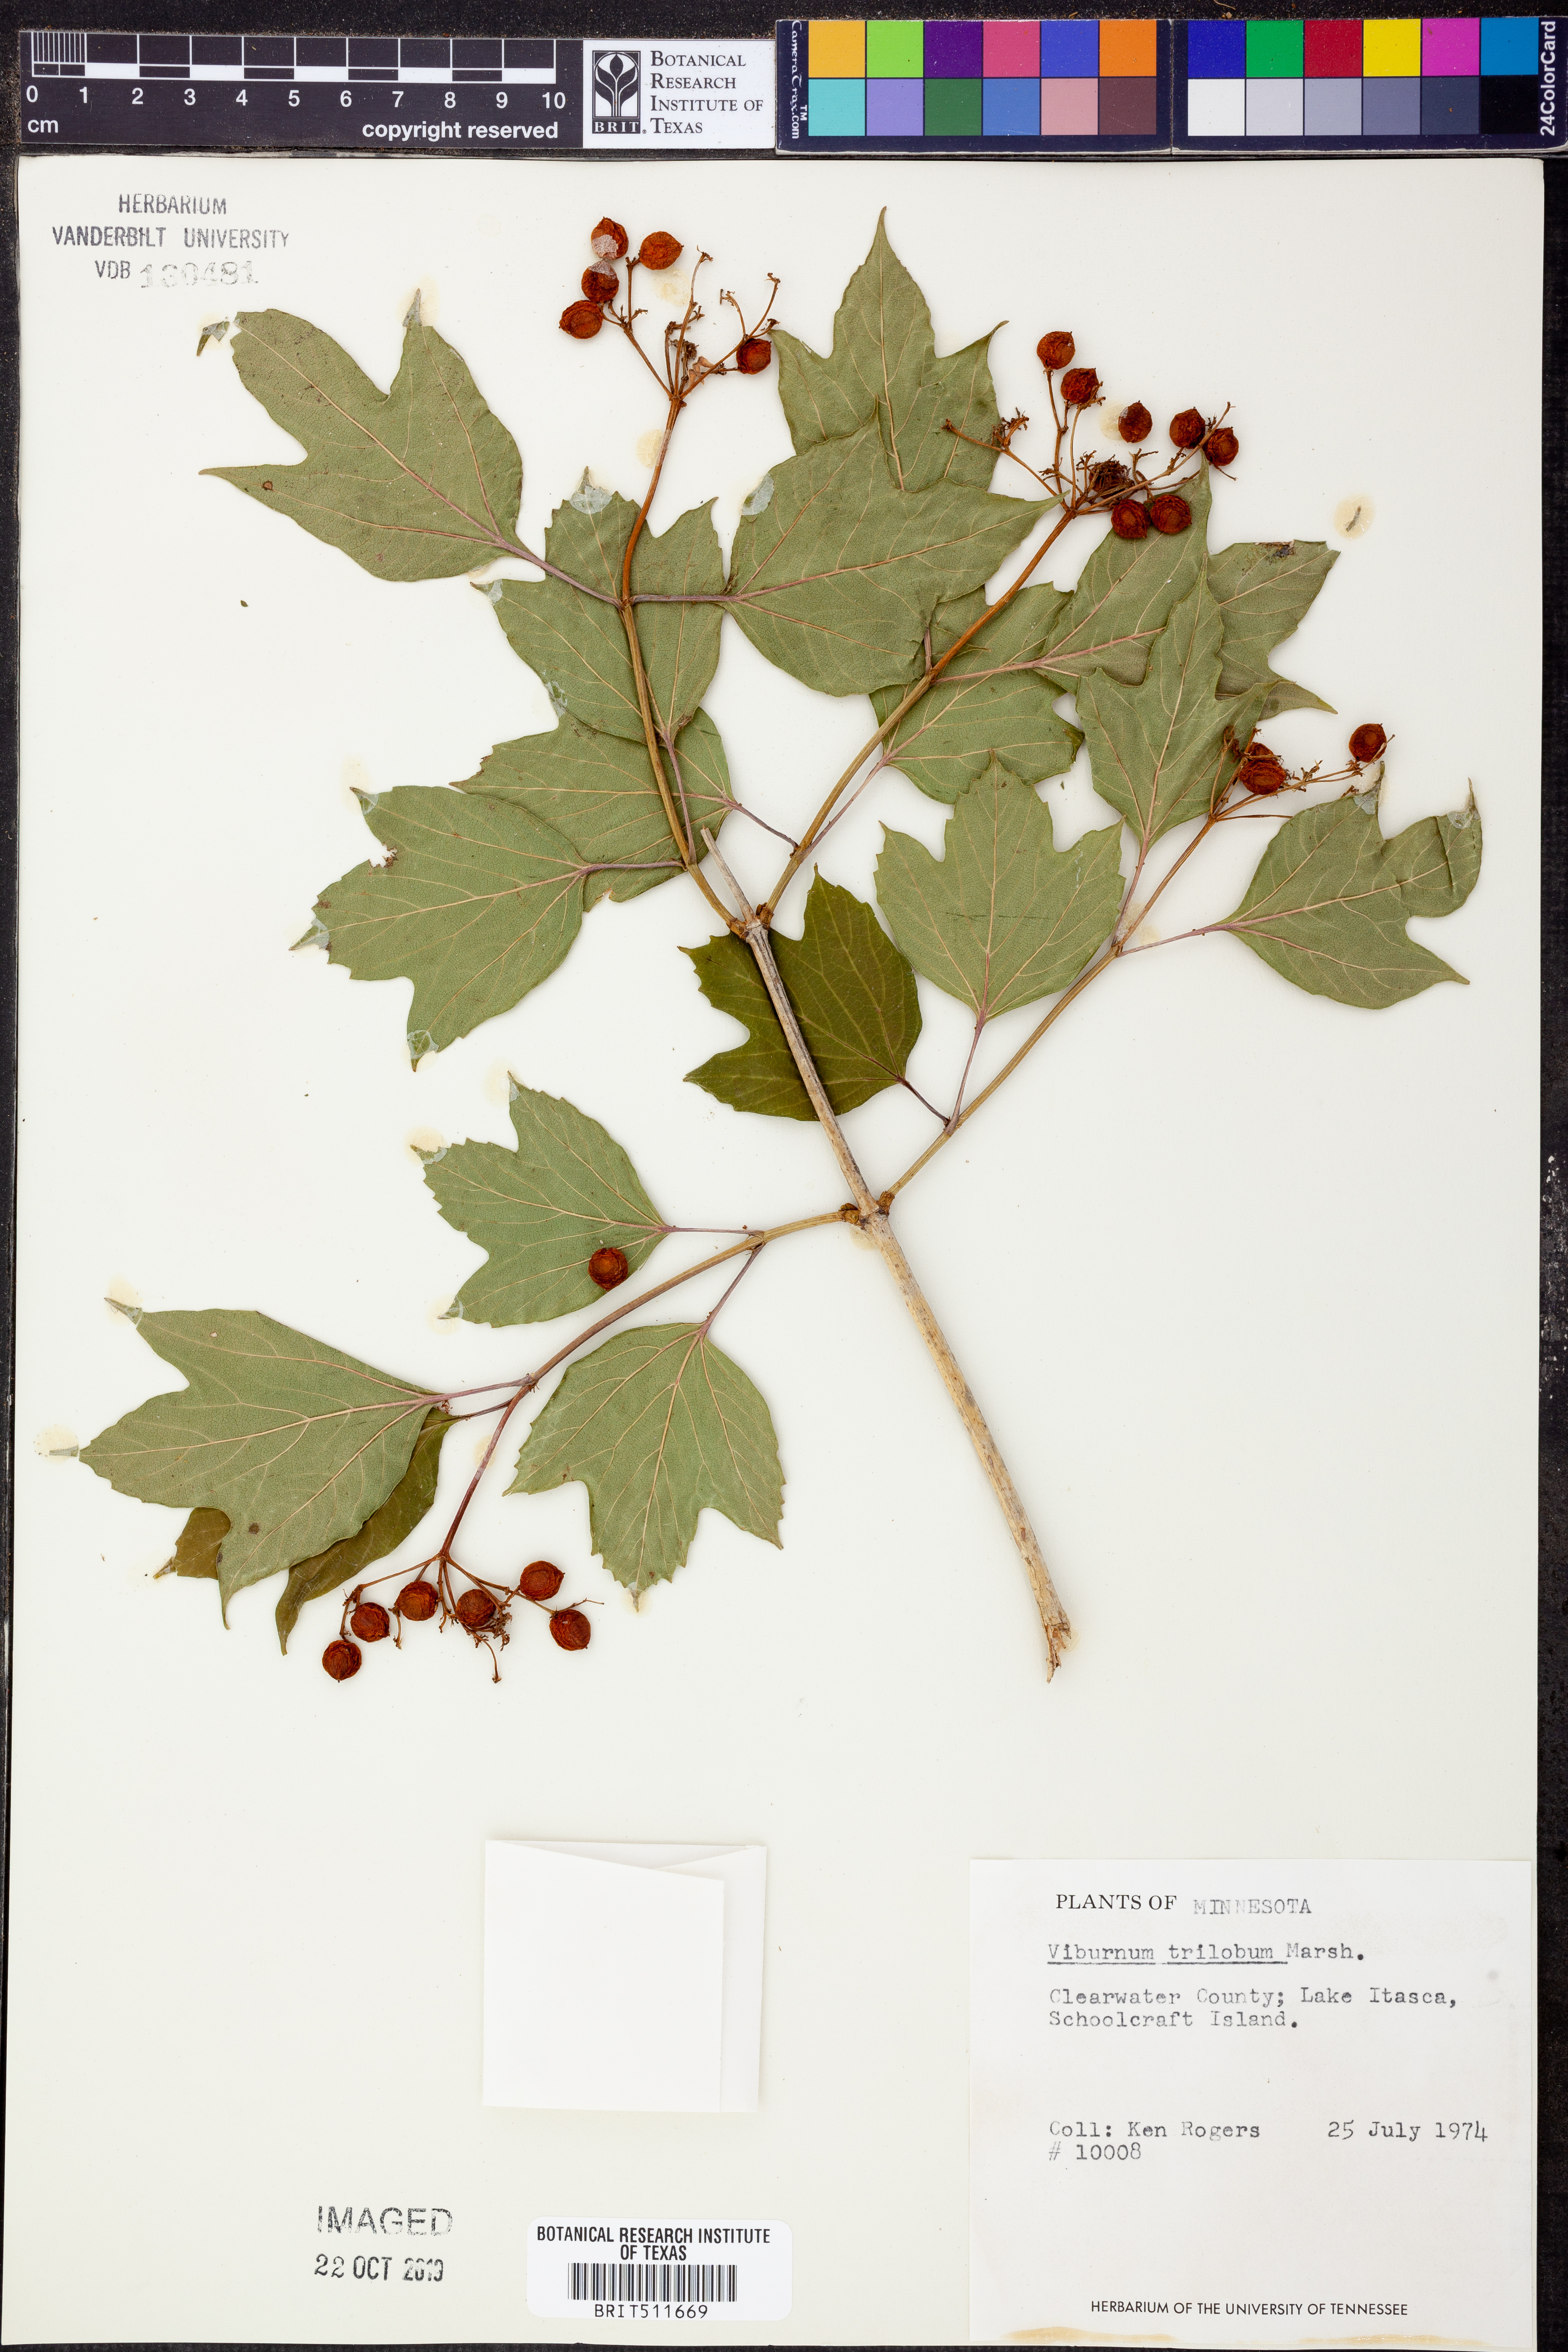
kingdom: Plantae
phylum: Tracheophyta
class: Magnoliopsida
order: Dipsacales
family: Viburnaceae
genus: Viburnum
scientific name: Viburnum trilobum
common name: American cranberrybush
